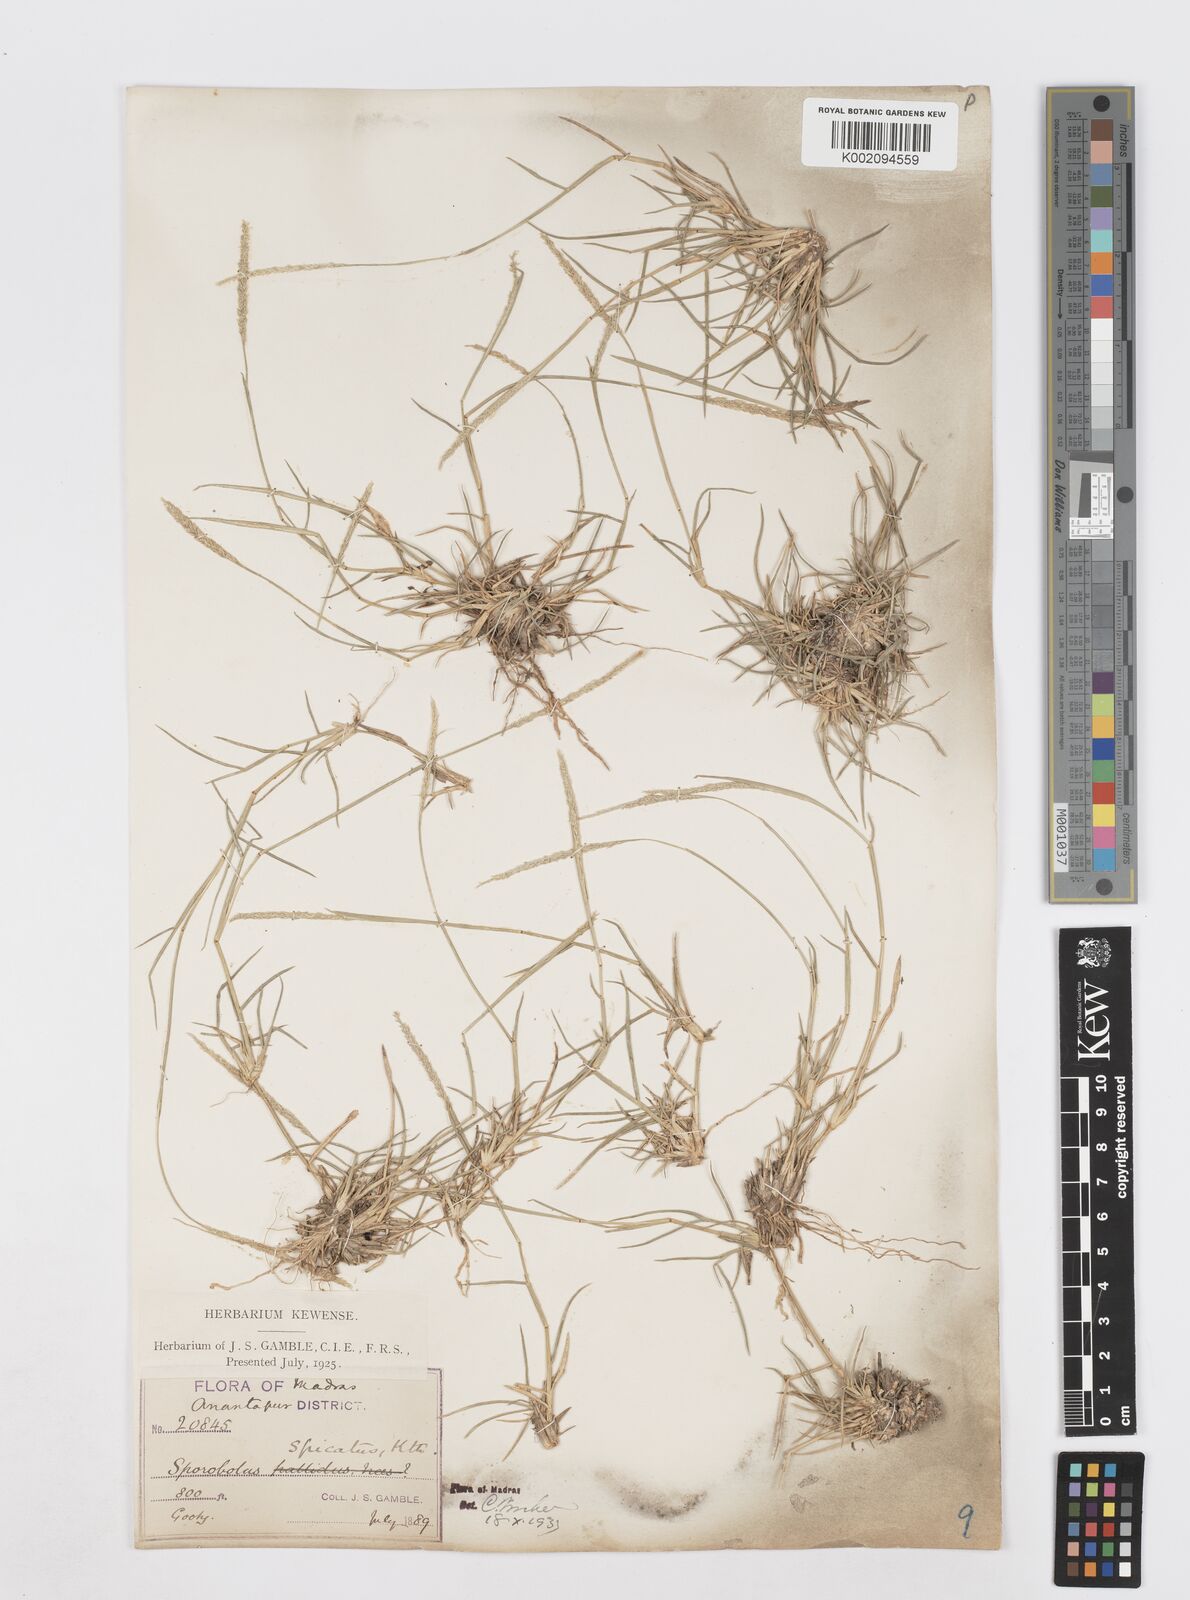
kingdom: Plantae
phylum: Tracheophyta
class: Liliopsida
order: Poales
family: Poaceae
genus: Sporobolus
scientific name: Sporobolus spicatus
